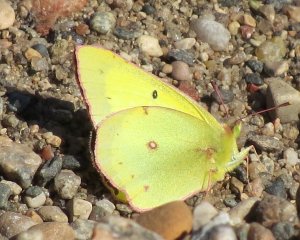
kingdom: Animalia
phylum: Arthropoda
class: Insecta
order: Lepidoptera
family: Pieridae
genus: Colias
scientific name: Colias philodice
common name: Clouded Sulphur
